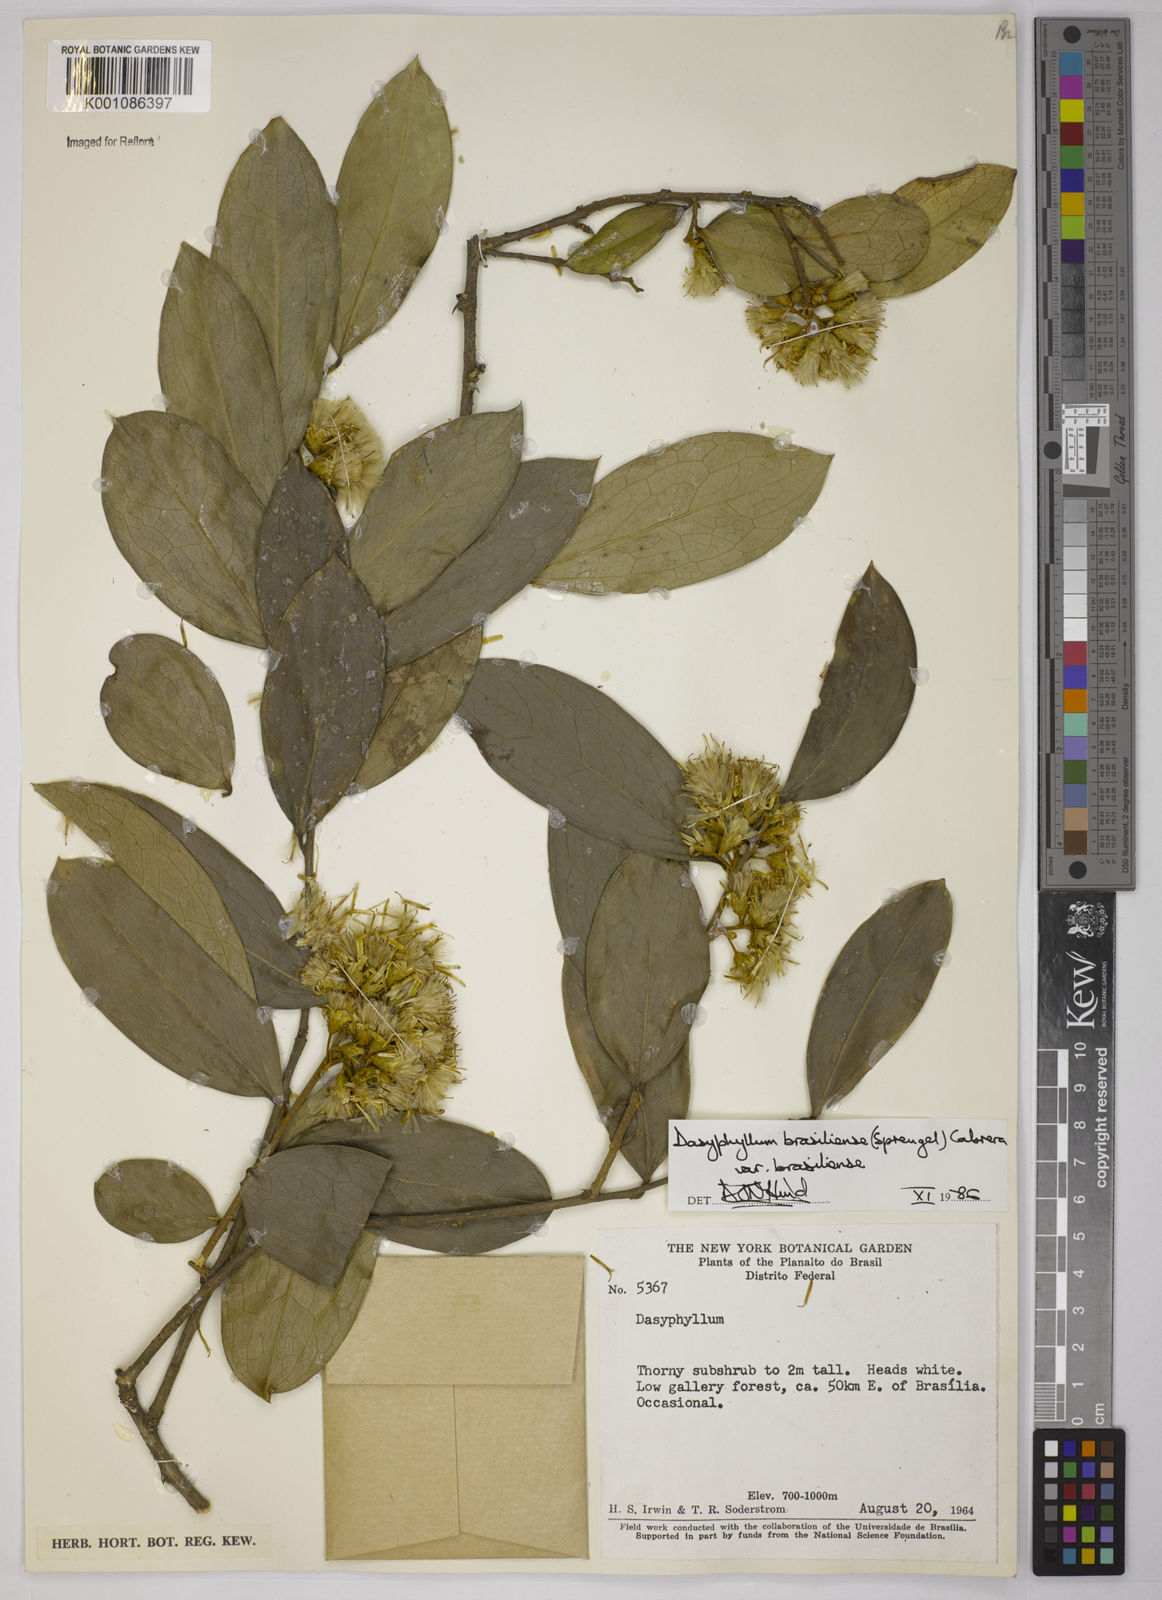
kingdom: Plantae
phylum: Tracheophyta
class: Magnoliopsida
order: Asterales
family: Asteraceae
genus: Dasyphyllum
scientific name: Dasyphyllum brasiliense
